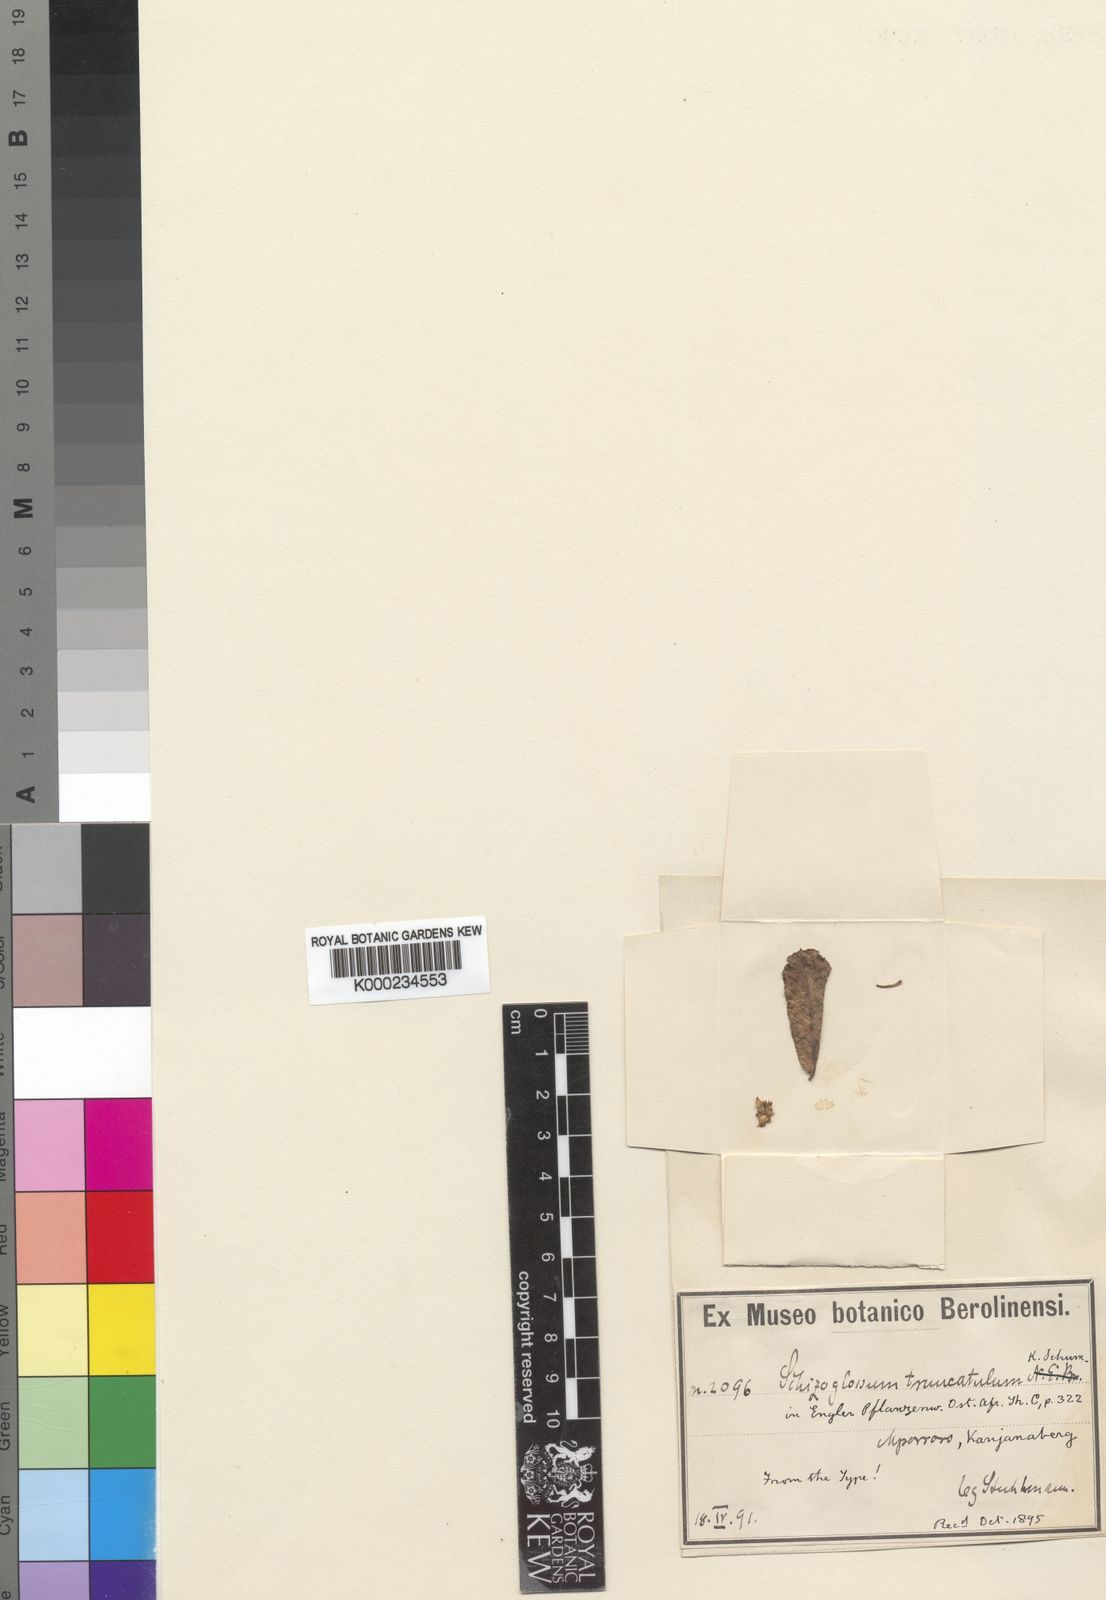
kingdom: Plantae
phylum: Tracheophyta
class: Magnoliopsida
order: Gentianales
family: Apocynaceae
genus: Xysmalobium
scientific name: Xysmalobium heudelotianum
